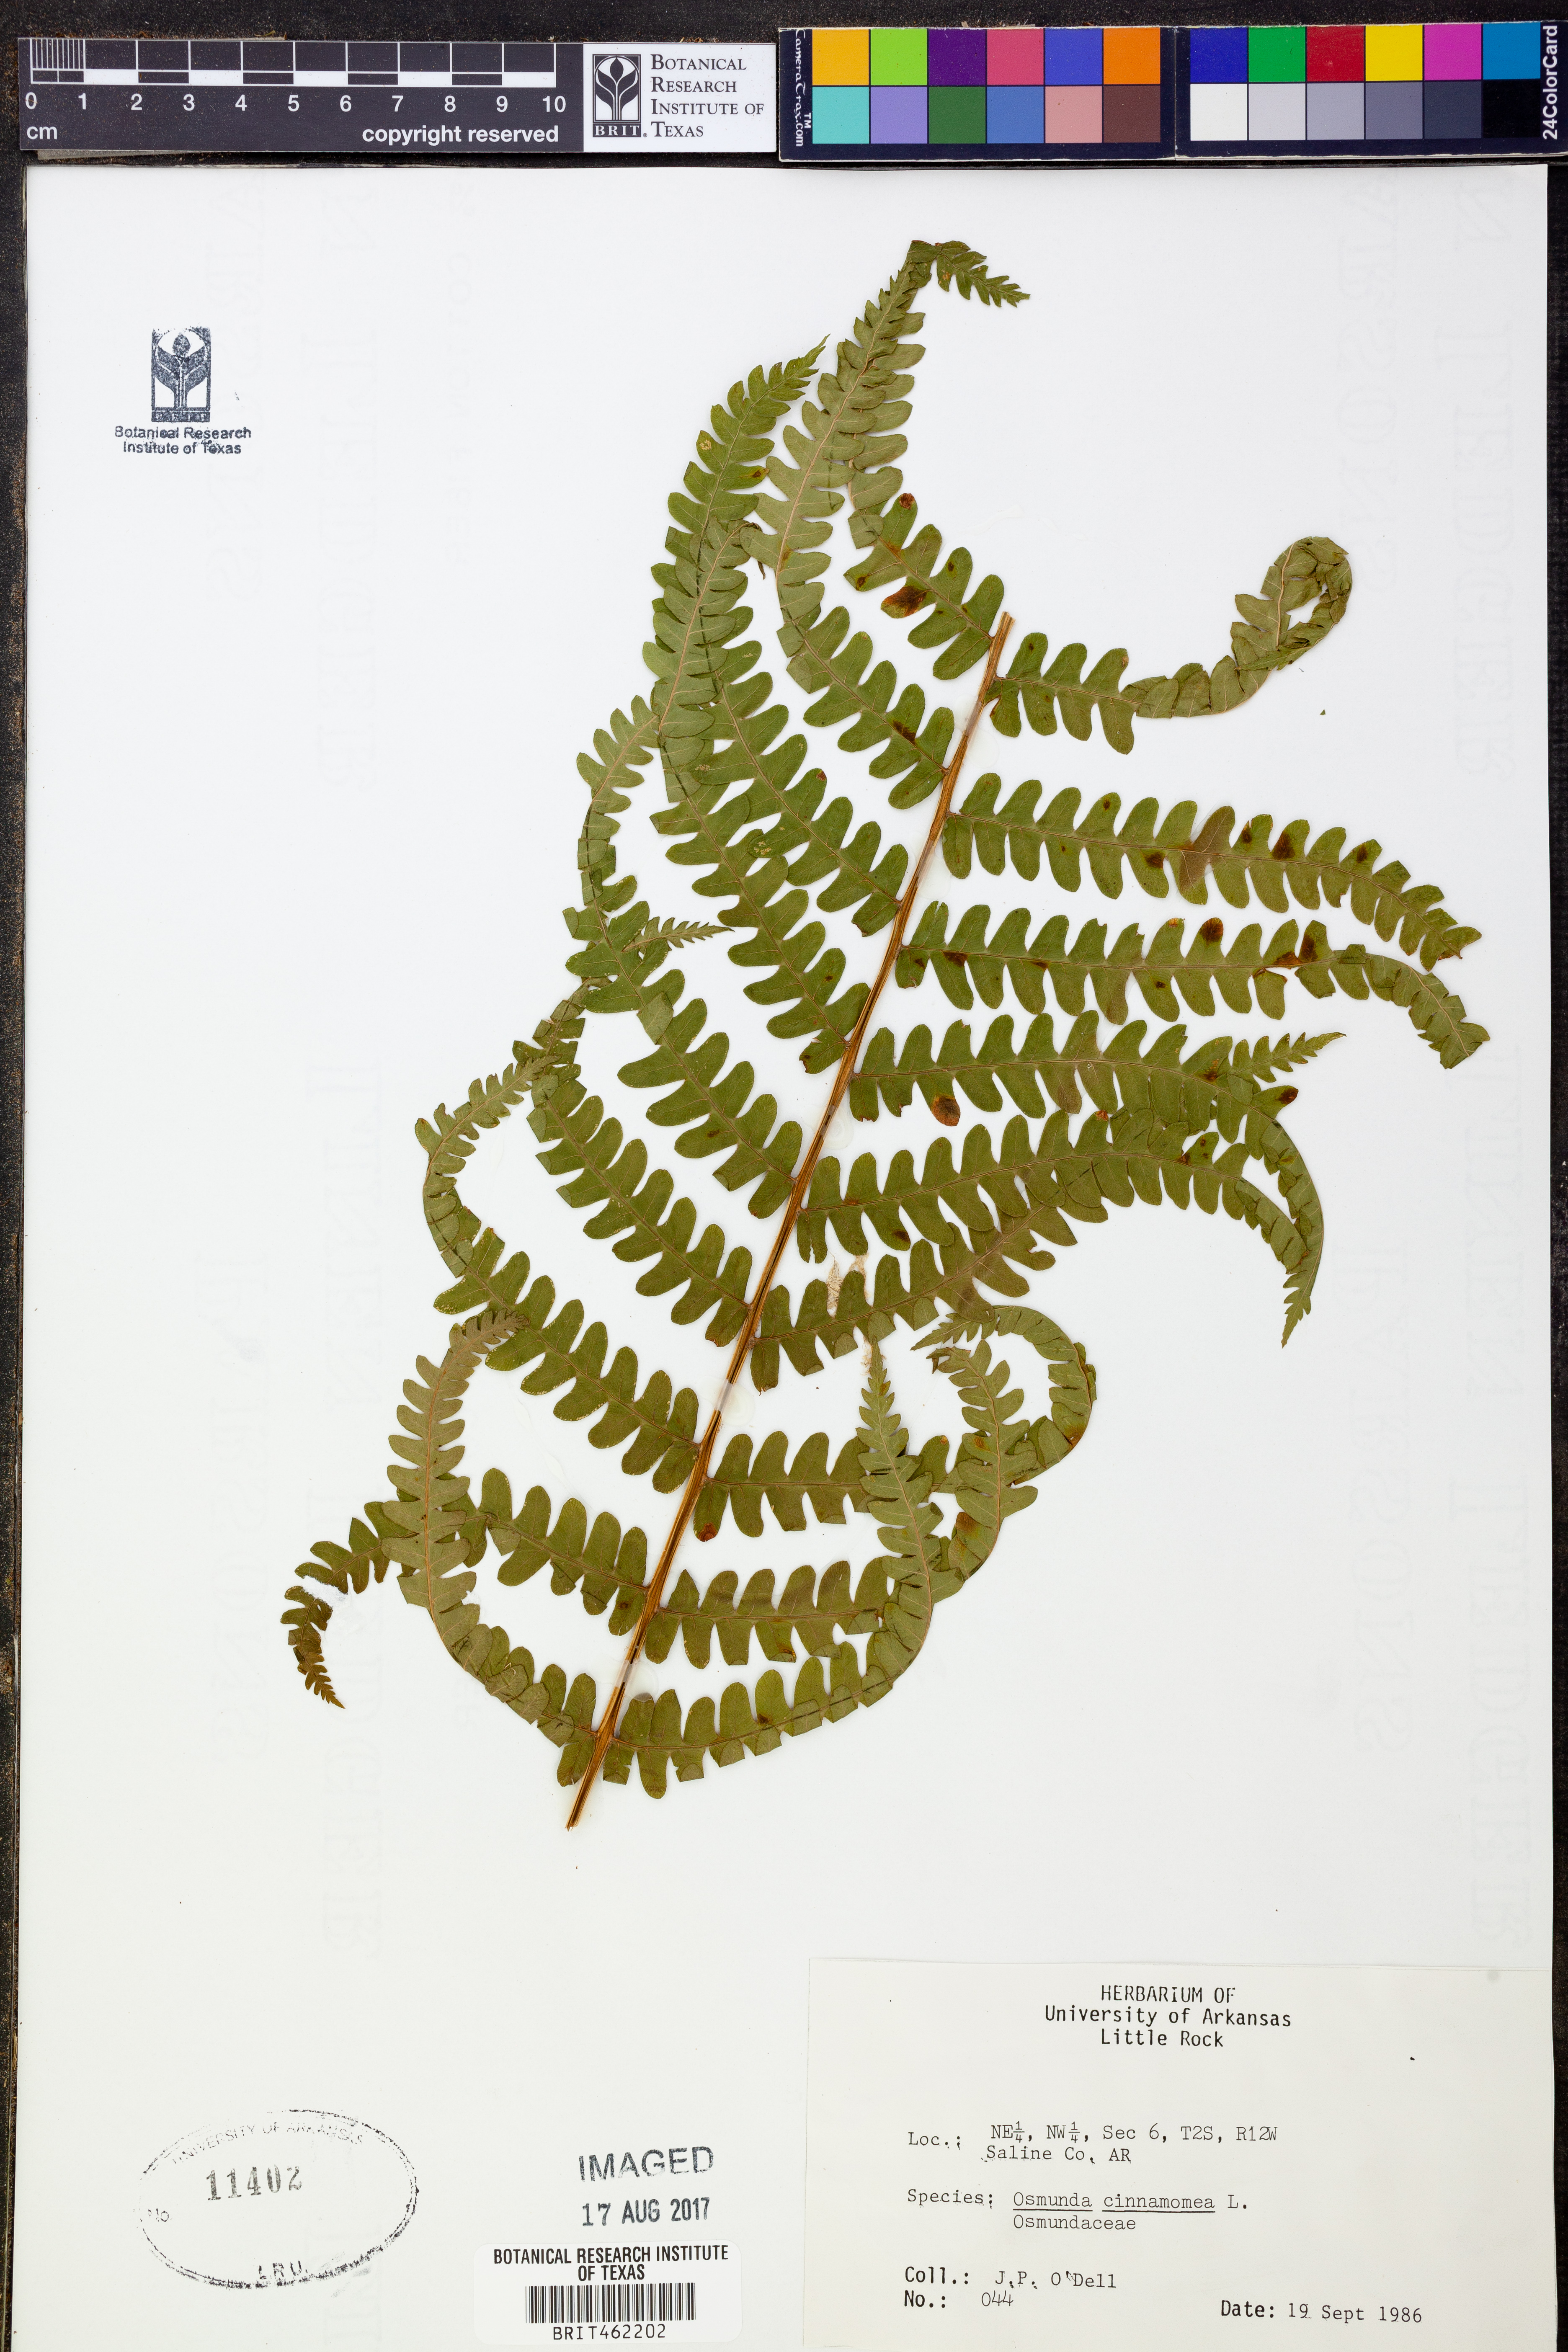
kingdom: Plantae
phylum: Tracheophyta
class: Polypodiopsida
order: Osmundales
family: Osmundaceae
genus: Osmundastrum
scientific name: Osmundastrum cinnamomeum
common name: Cinnamon fern
